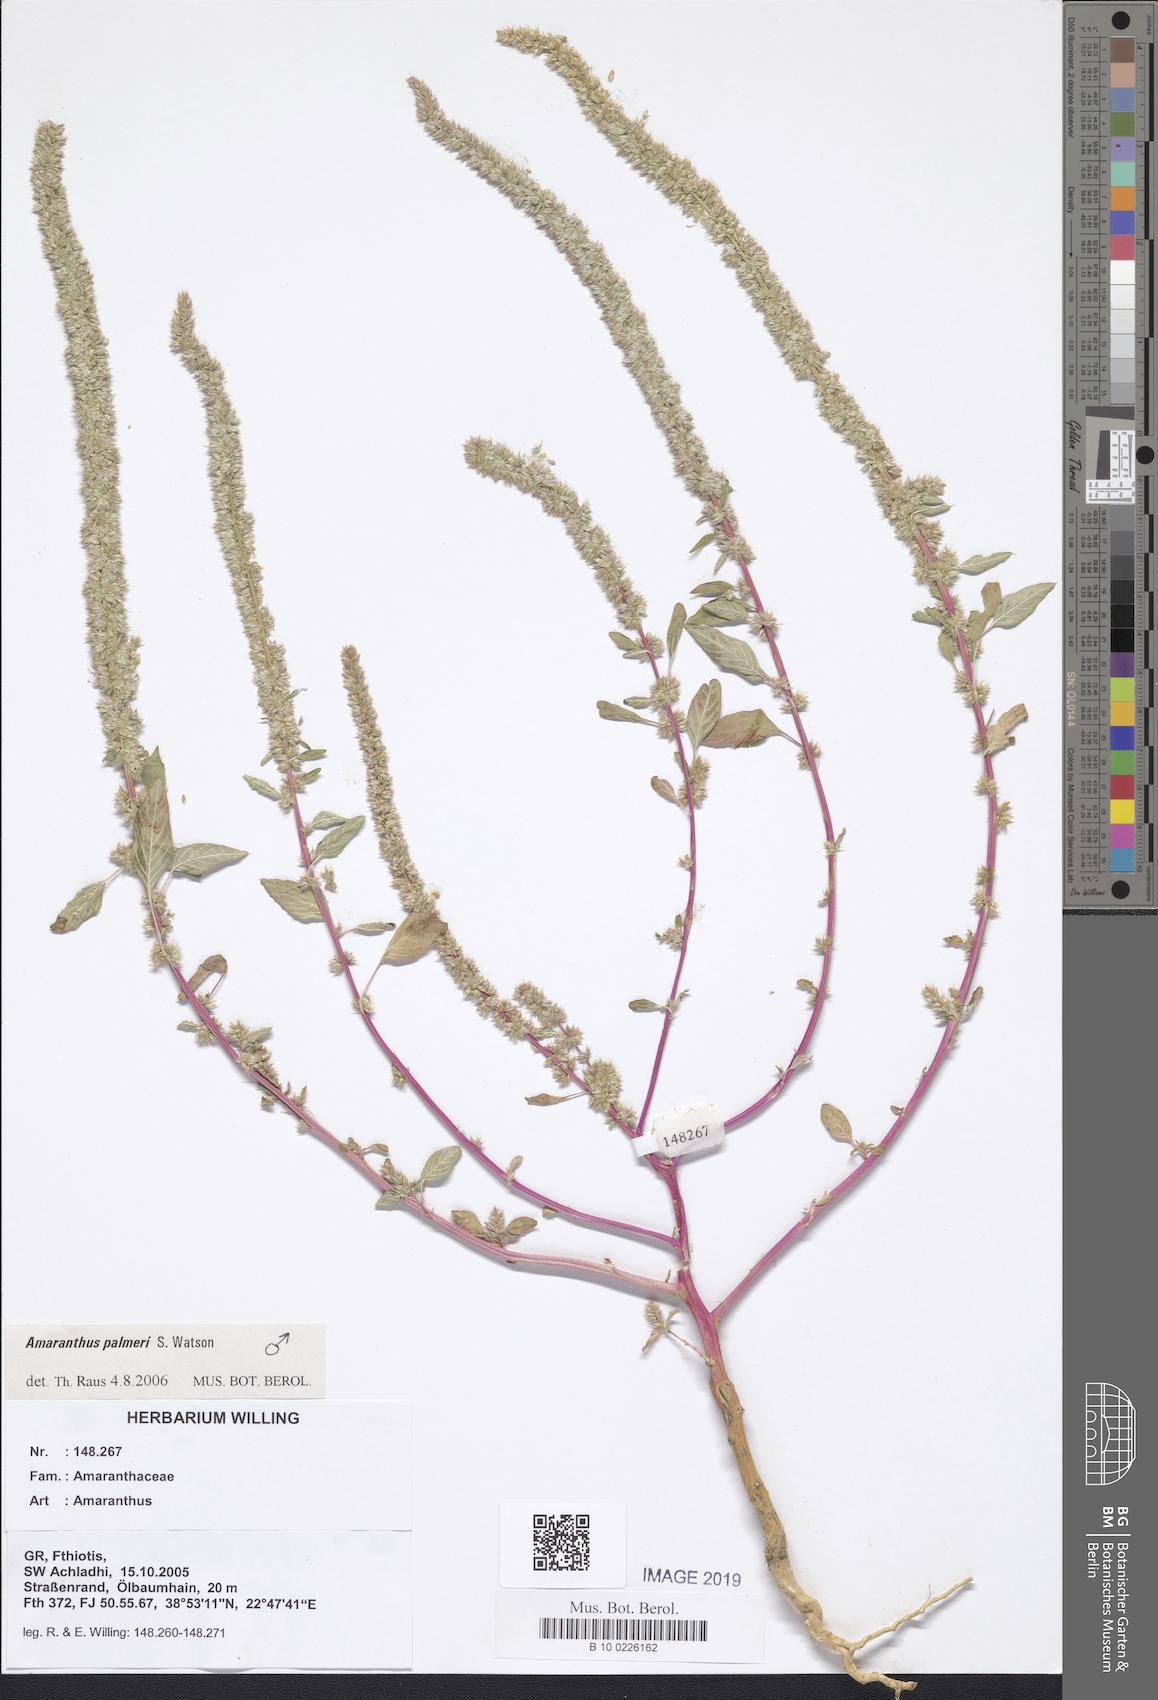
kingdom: Plantae
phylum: Tracheophyta
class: Magnoliopsida
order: Saxifragales
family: Saxifragaceae
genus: Saxifraga
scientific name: Saxifraga juniperifolia
